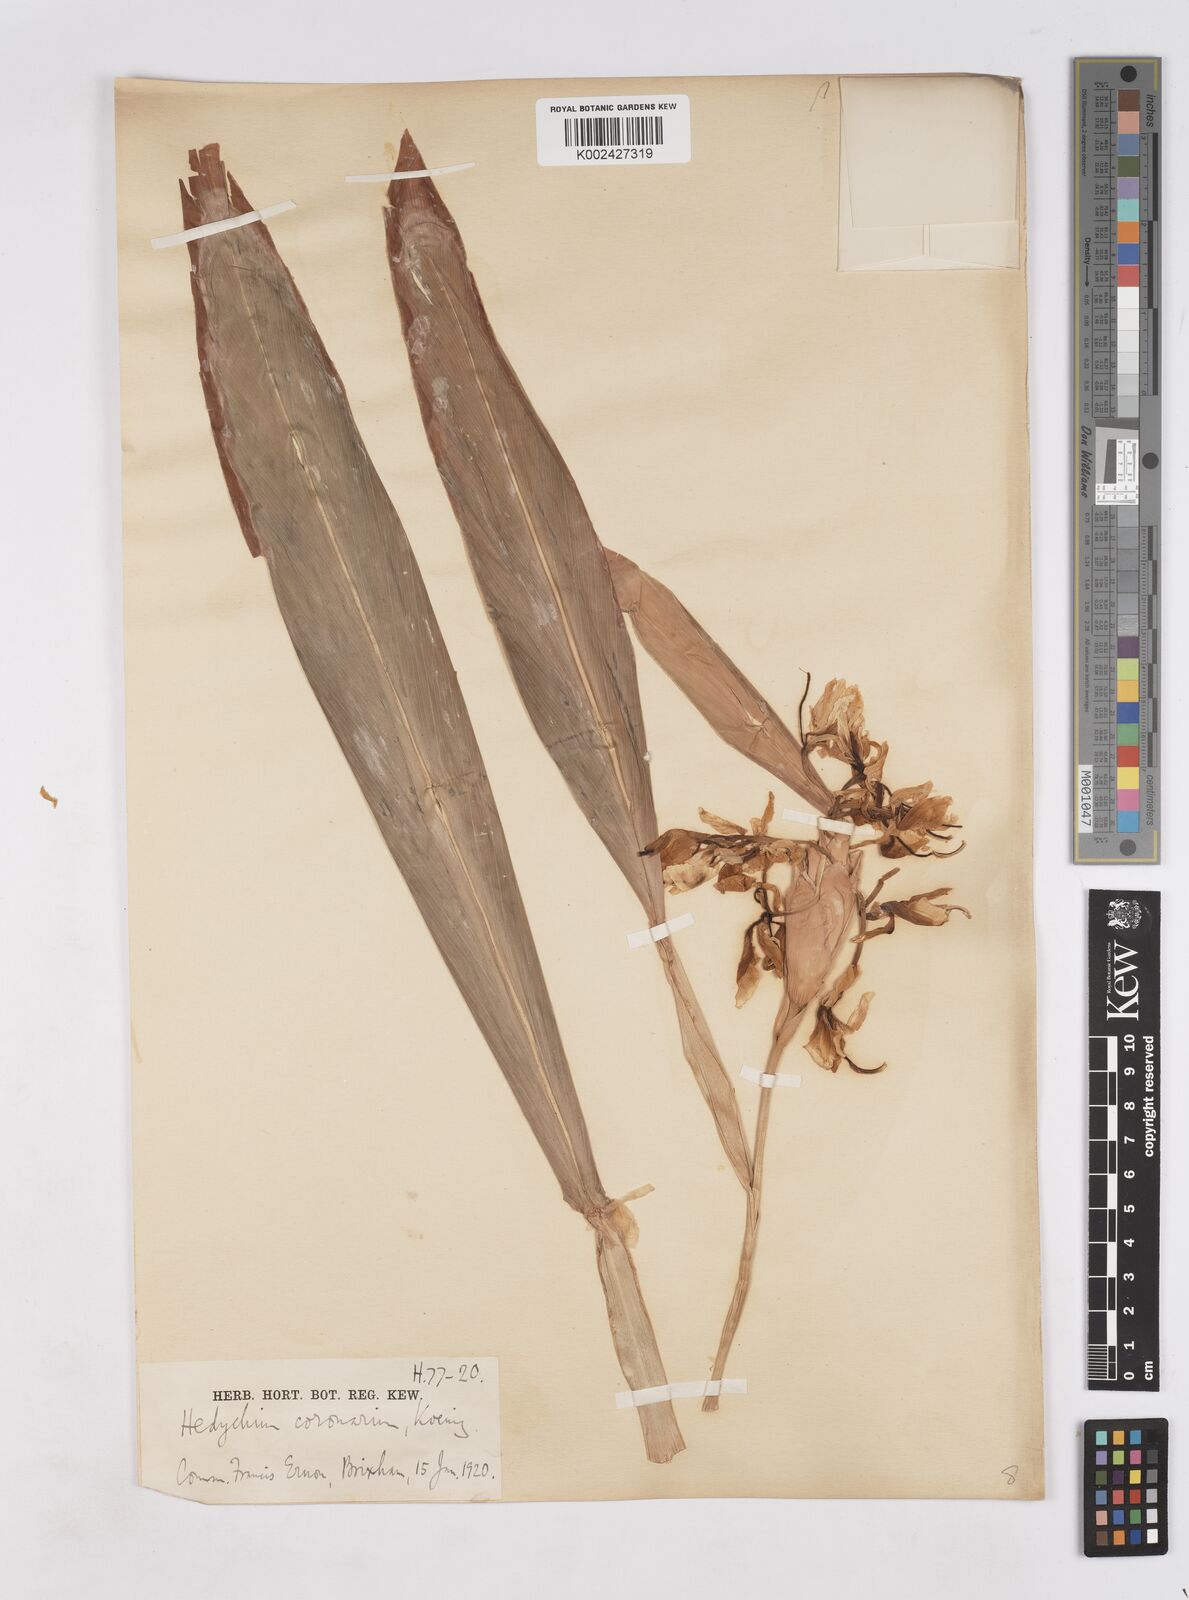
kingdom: Plantae
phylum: Tracheophyta
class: Liliopsida
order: Zingiberales
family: Zingiberaceae
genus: Hedychium
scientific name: Hedychium flavescens
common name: Yellow ginger
